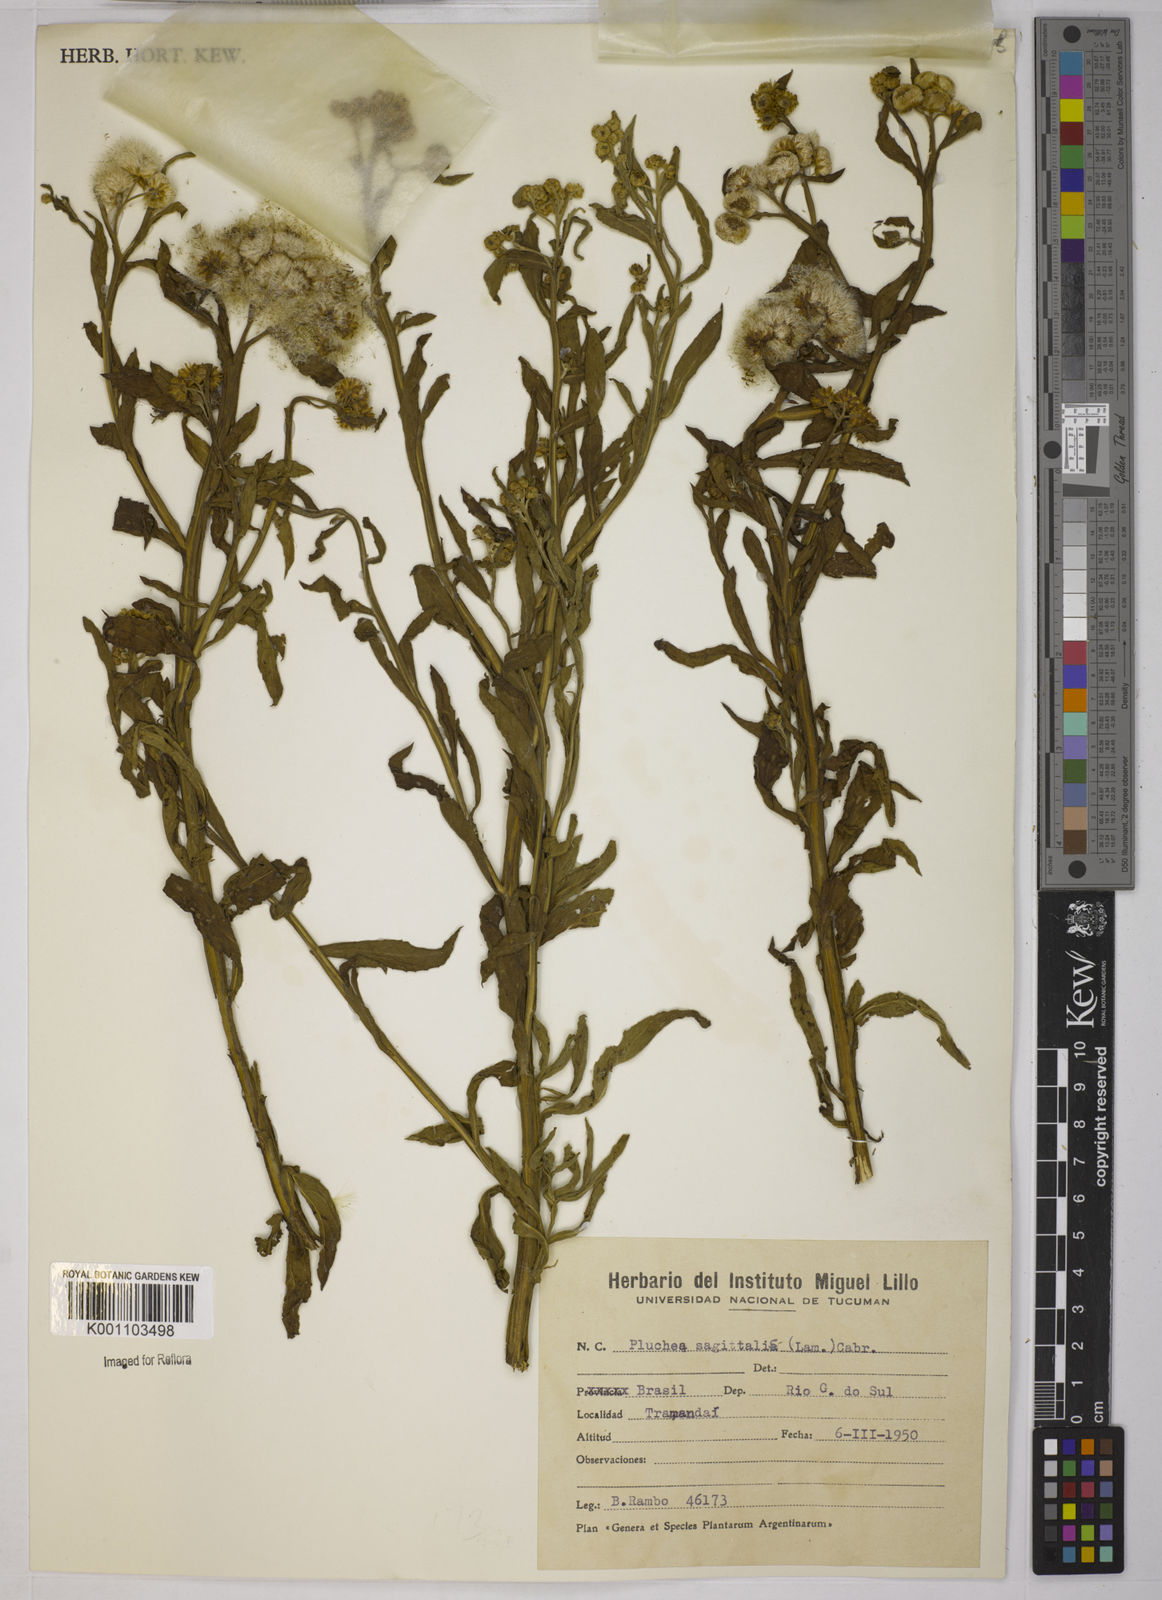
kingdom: Plantae
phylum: Tracheophyta
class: Magnoliopsida
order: Asterales
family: Asteraceae
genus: Pluchea
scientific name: Pluchea sagittalis
